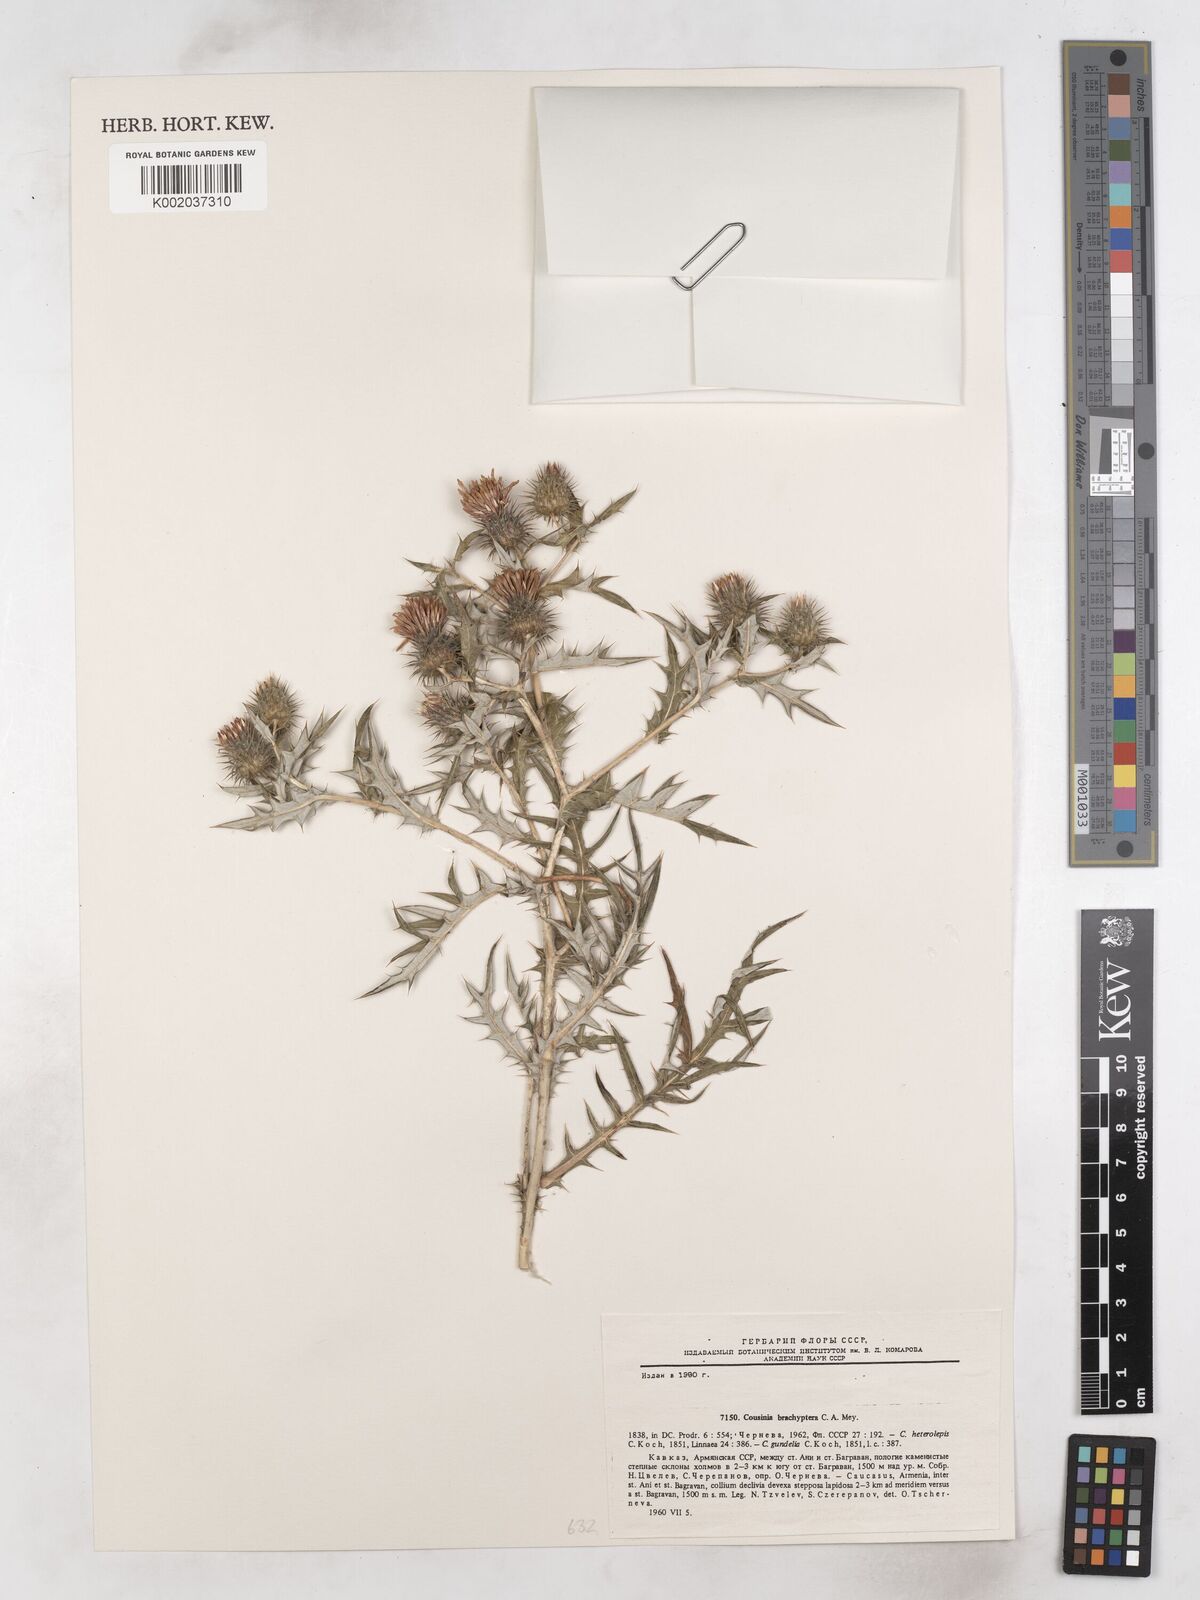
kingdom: Plantae
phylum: Tracheophyta
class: Magnoliopsida
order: Asterales
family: Asteraceae
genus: Cousinia
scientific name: Cousinia brachyptera
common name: Short-winged cousinia
